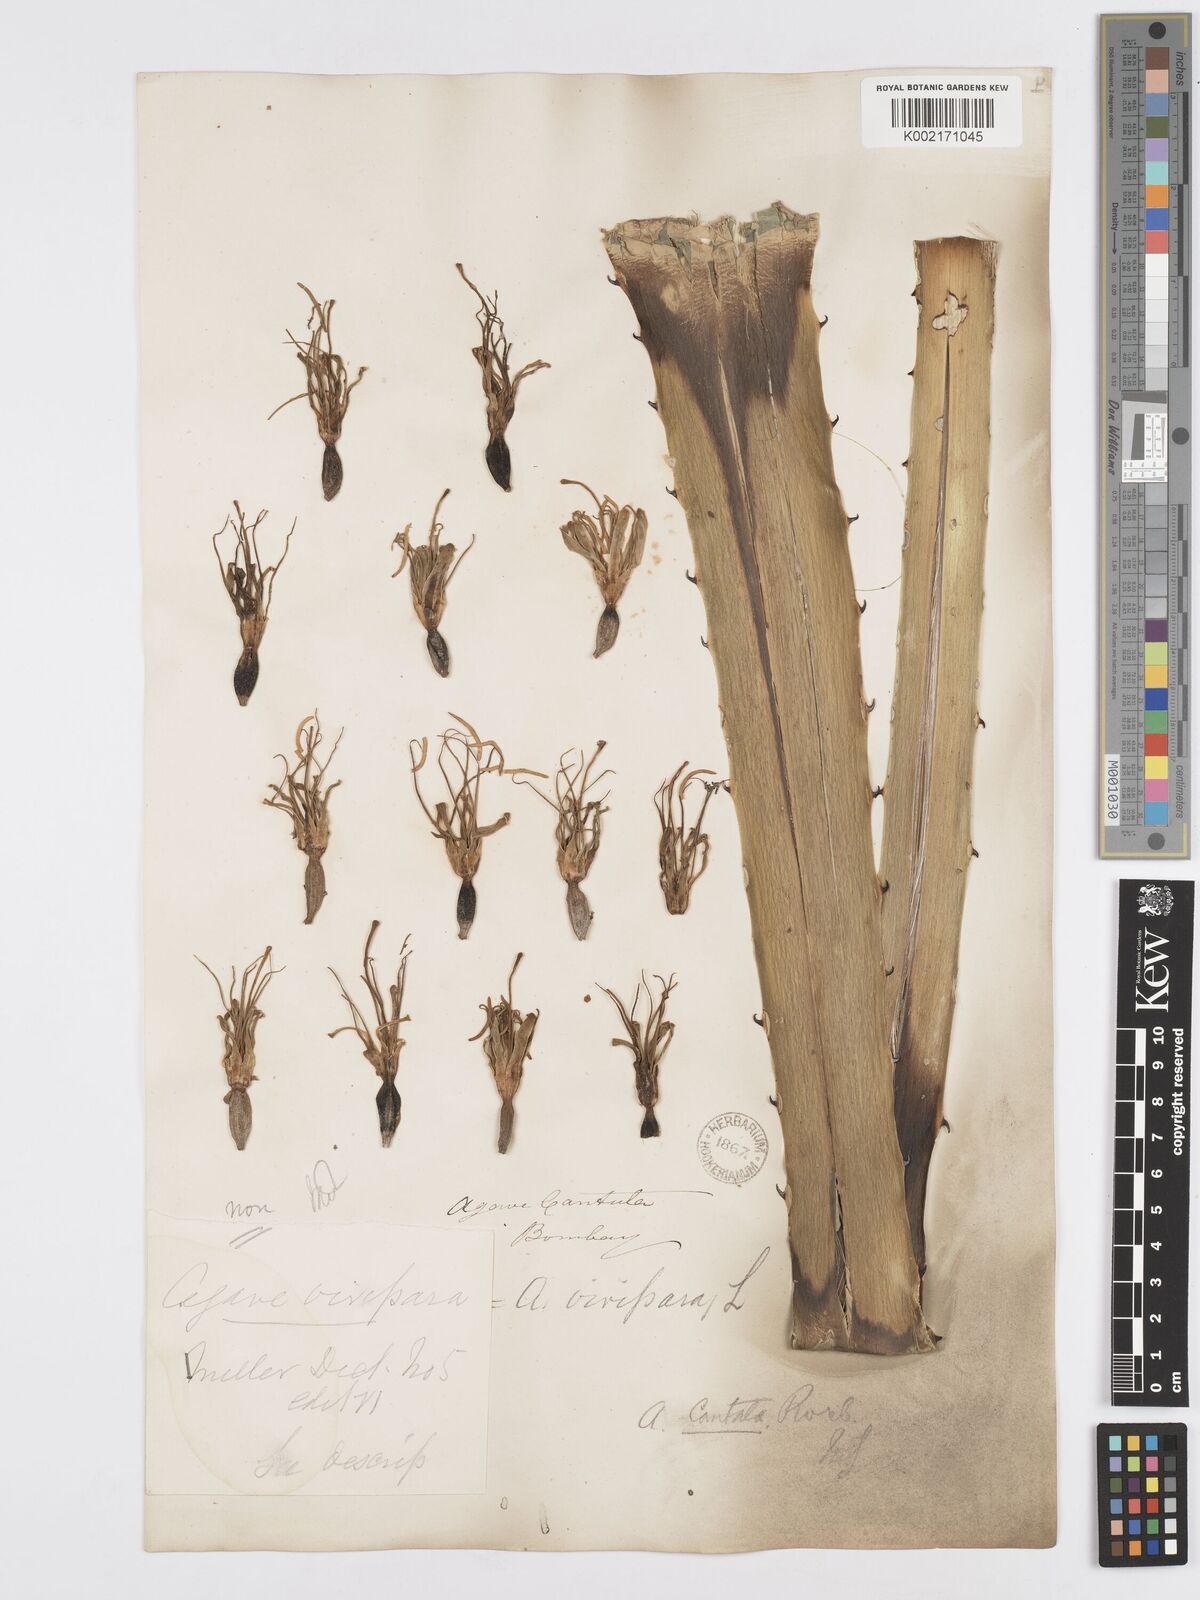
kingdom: Plantae
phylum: Tracheophyta
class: Liliopsida
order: Asparagales
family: Asparagaceae
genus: Agave
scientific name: Agave vivipara
